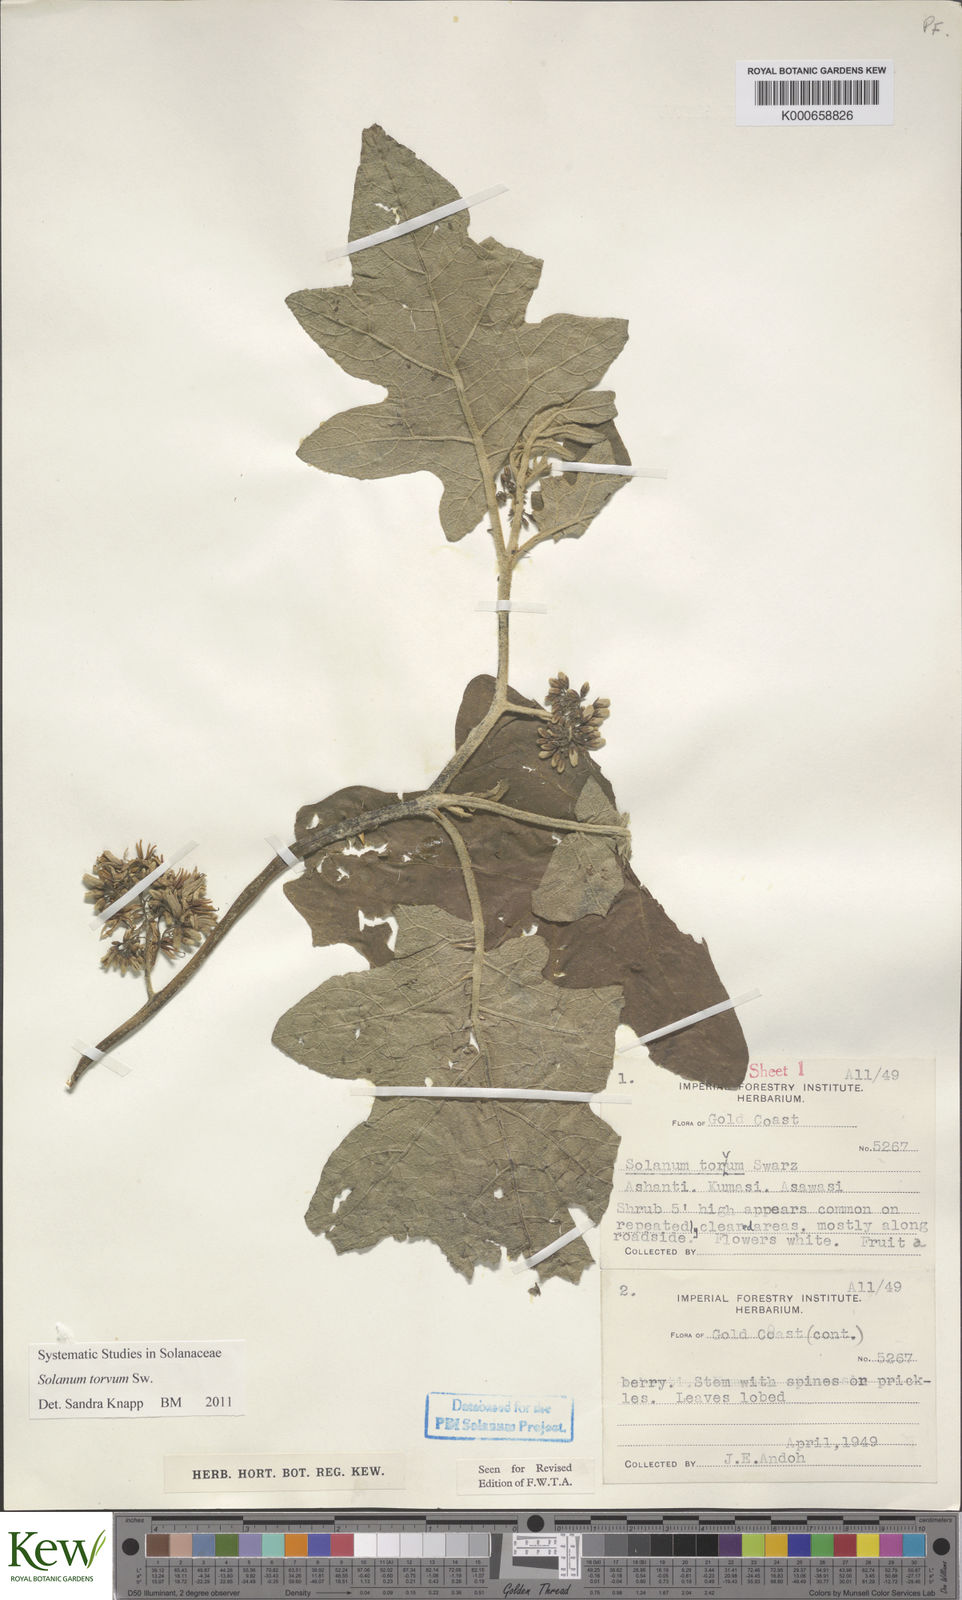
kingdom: Plantae
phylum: Tracheophyta
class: Magnoliopsida
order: Solanales
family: Solanaceae
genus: Solanum
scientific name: Solanum torvum
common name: Turkey berry
